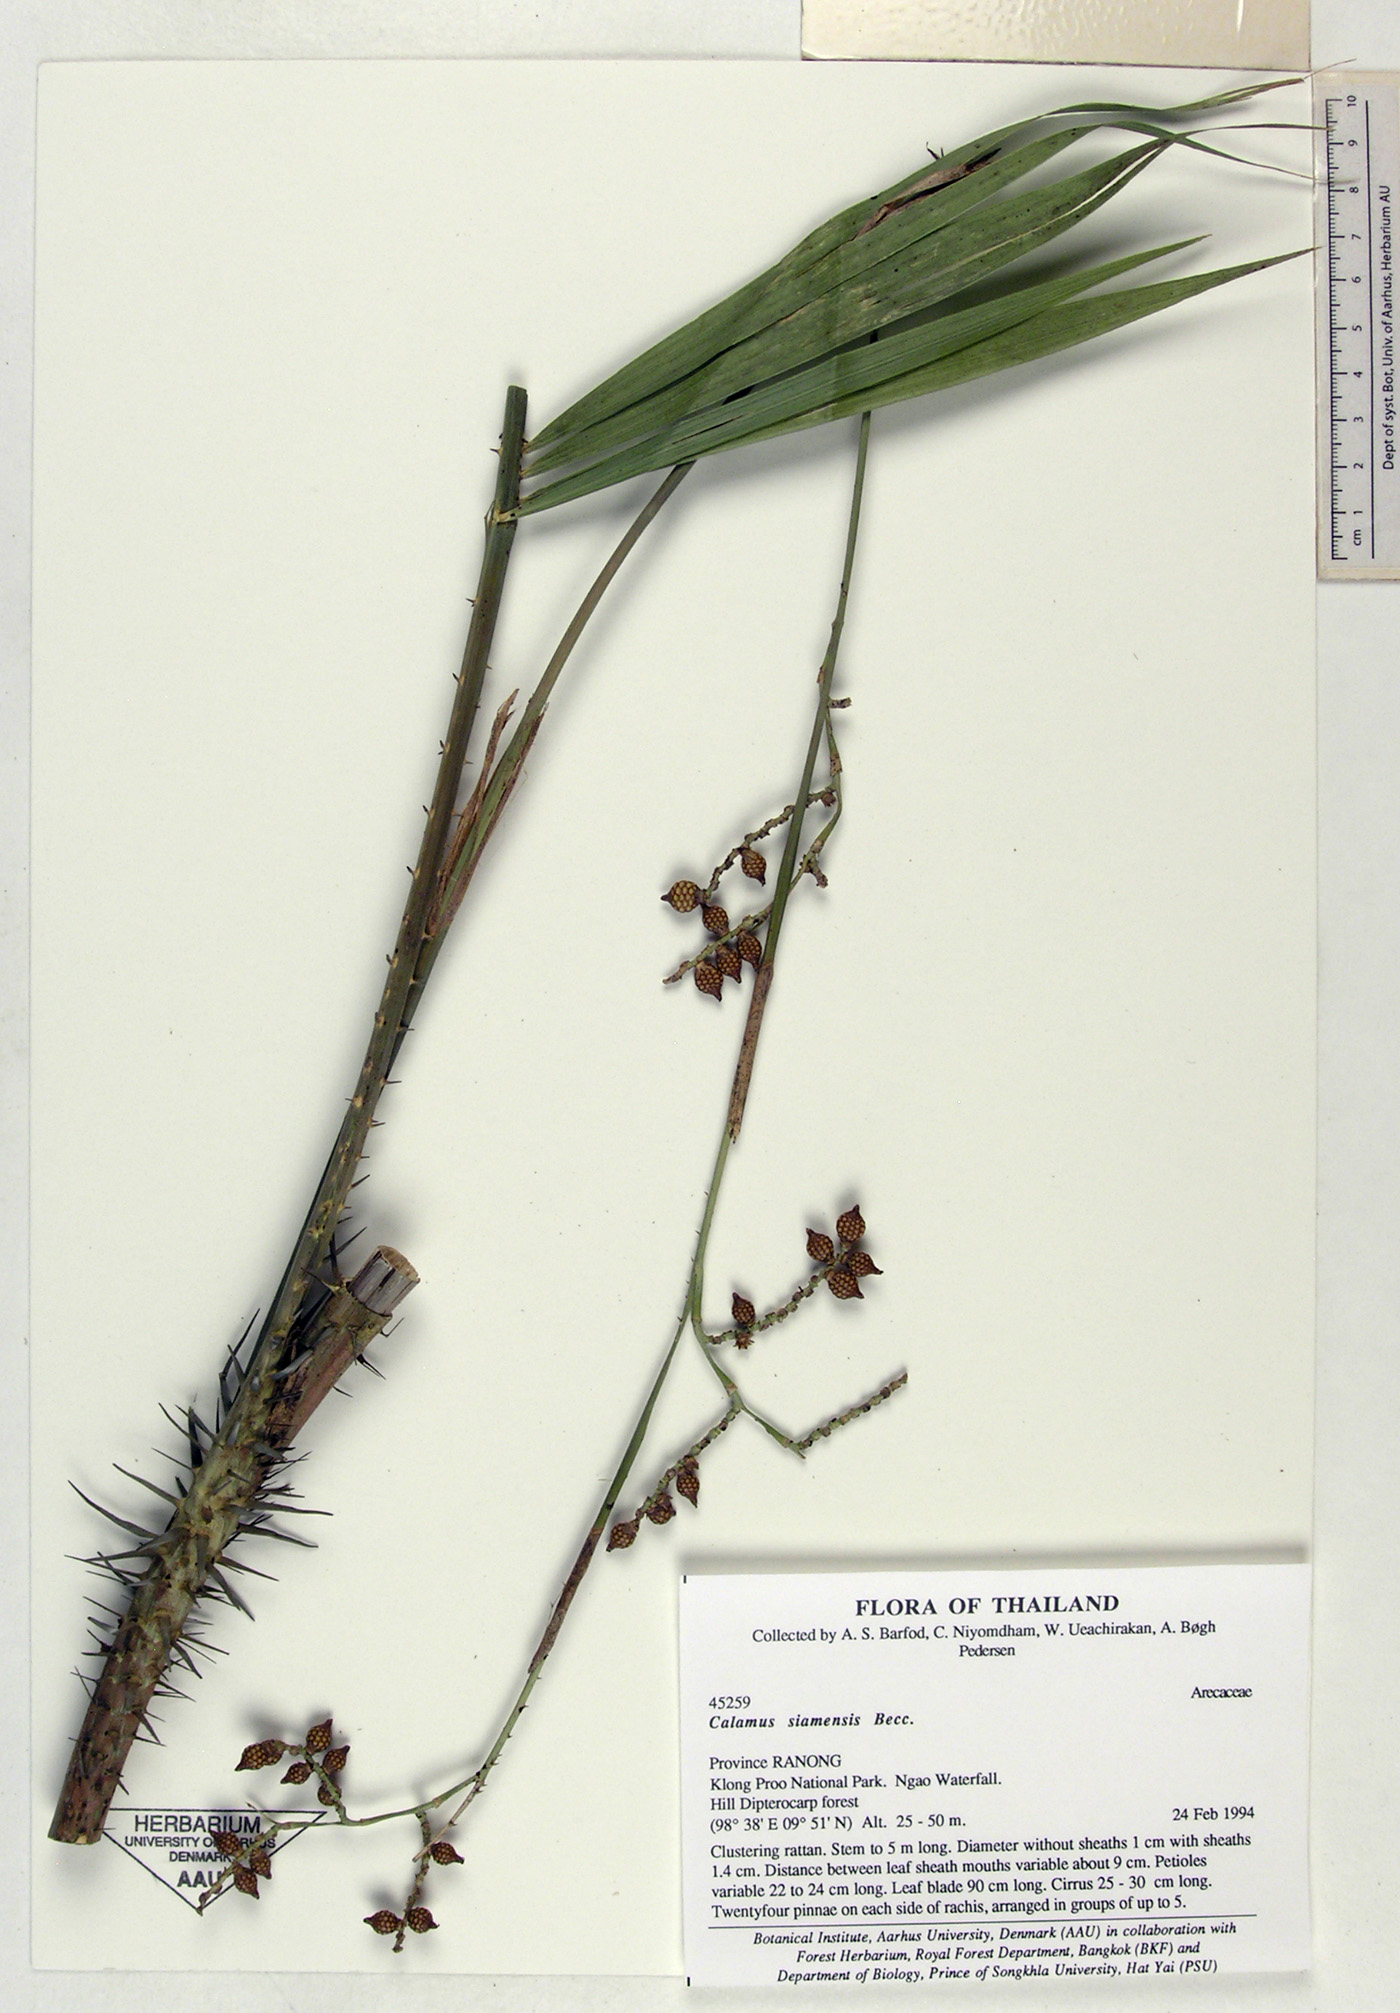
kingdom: Plantae
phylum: Tracheophyta
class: Liliopsida
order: Arecales
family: Arecaceae
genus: Calamus
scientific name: Calamus oxleyanus
